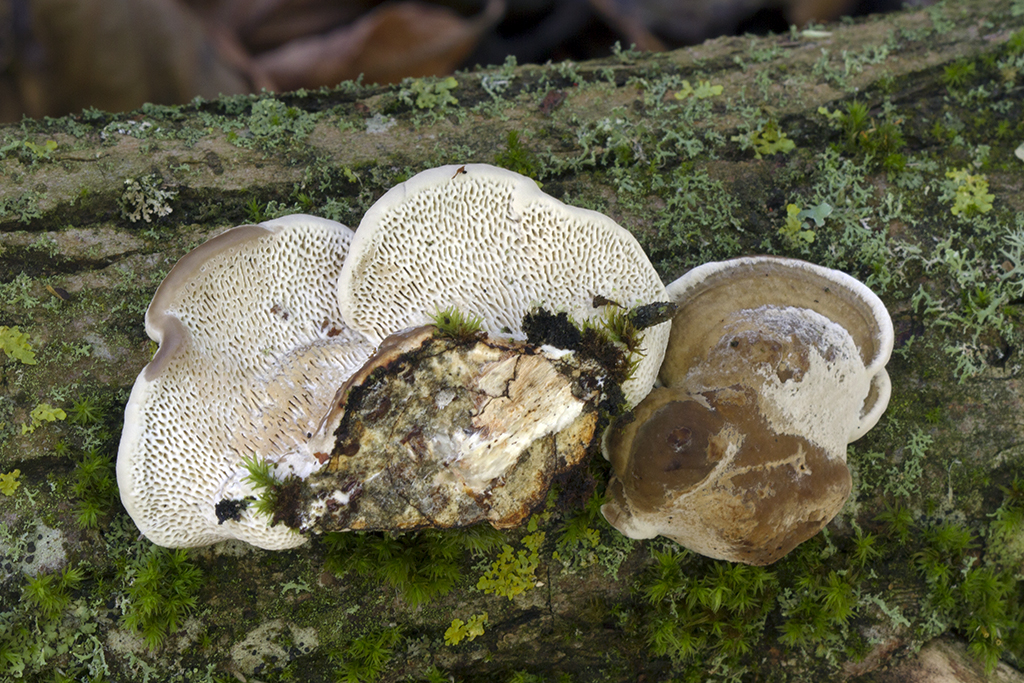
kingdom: Fungi
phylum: Basidiomycota
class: Agaricomycetes
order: Polyporales
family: Polyporaceae
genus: Daedaleopsis
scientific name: Daedaleopsis confragosa
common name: rødmende læderporesvamp
